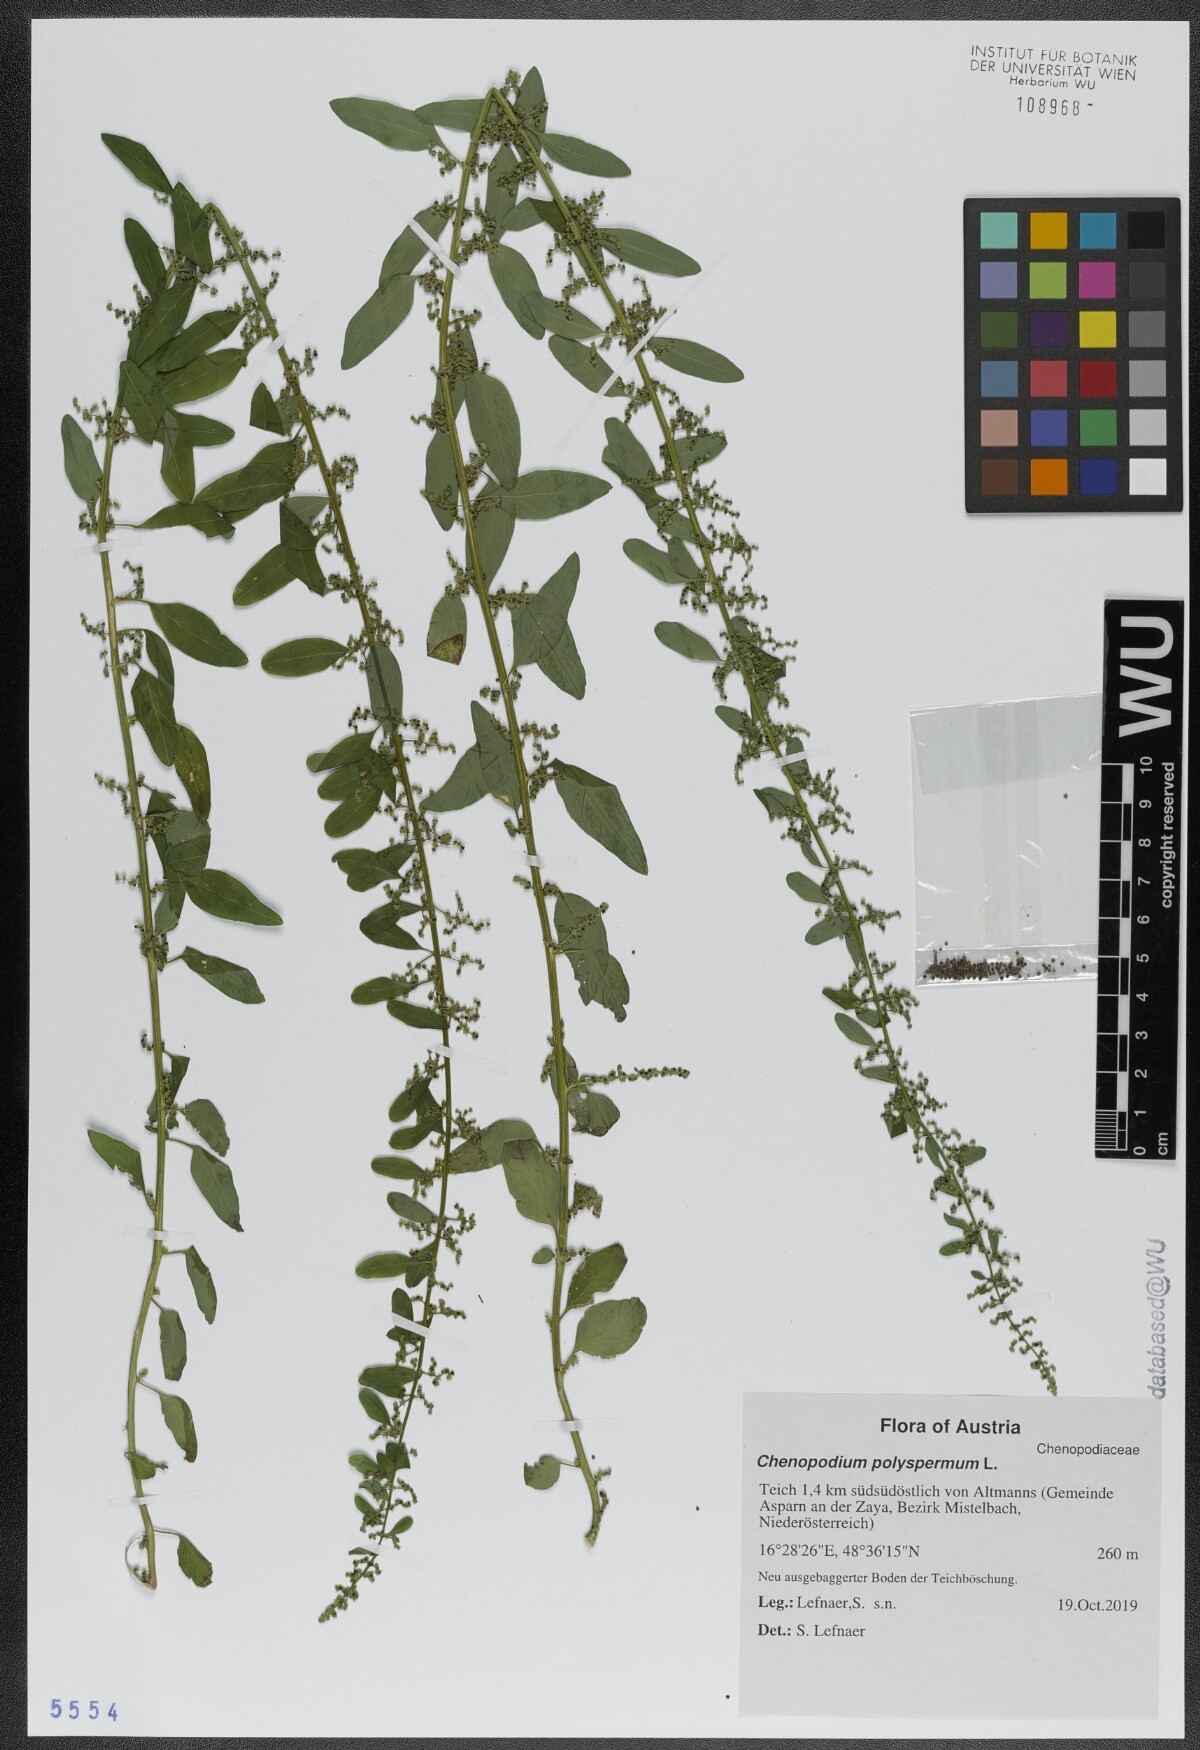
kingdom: Plantae
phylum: Tracheophyta
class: Magnoliopsida
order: Caryophyllales
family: Amaranthaceae
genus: Lipandra
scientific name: Lipandra polysperma
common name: Many-seed goosefoot
